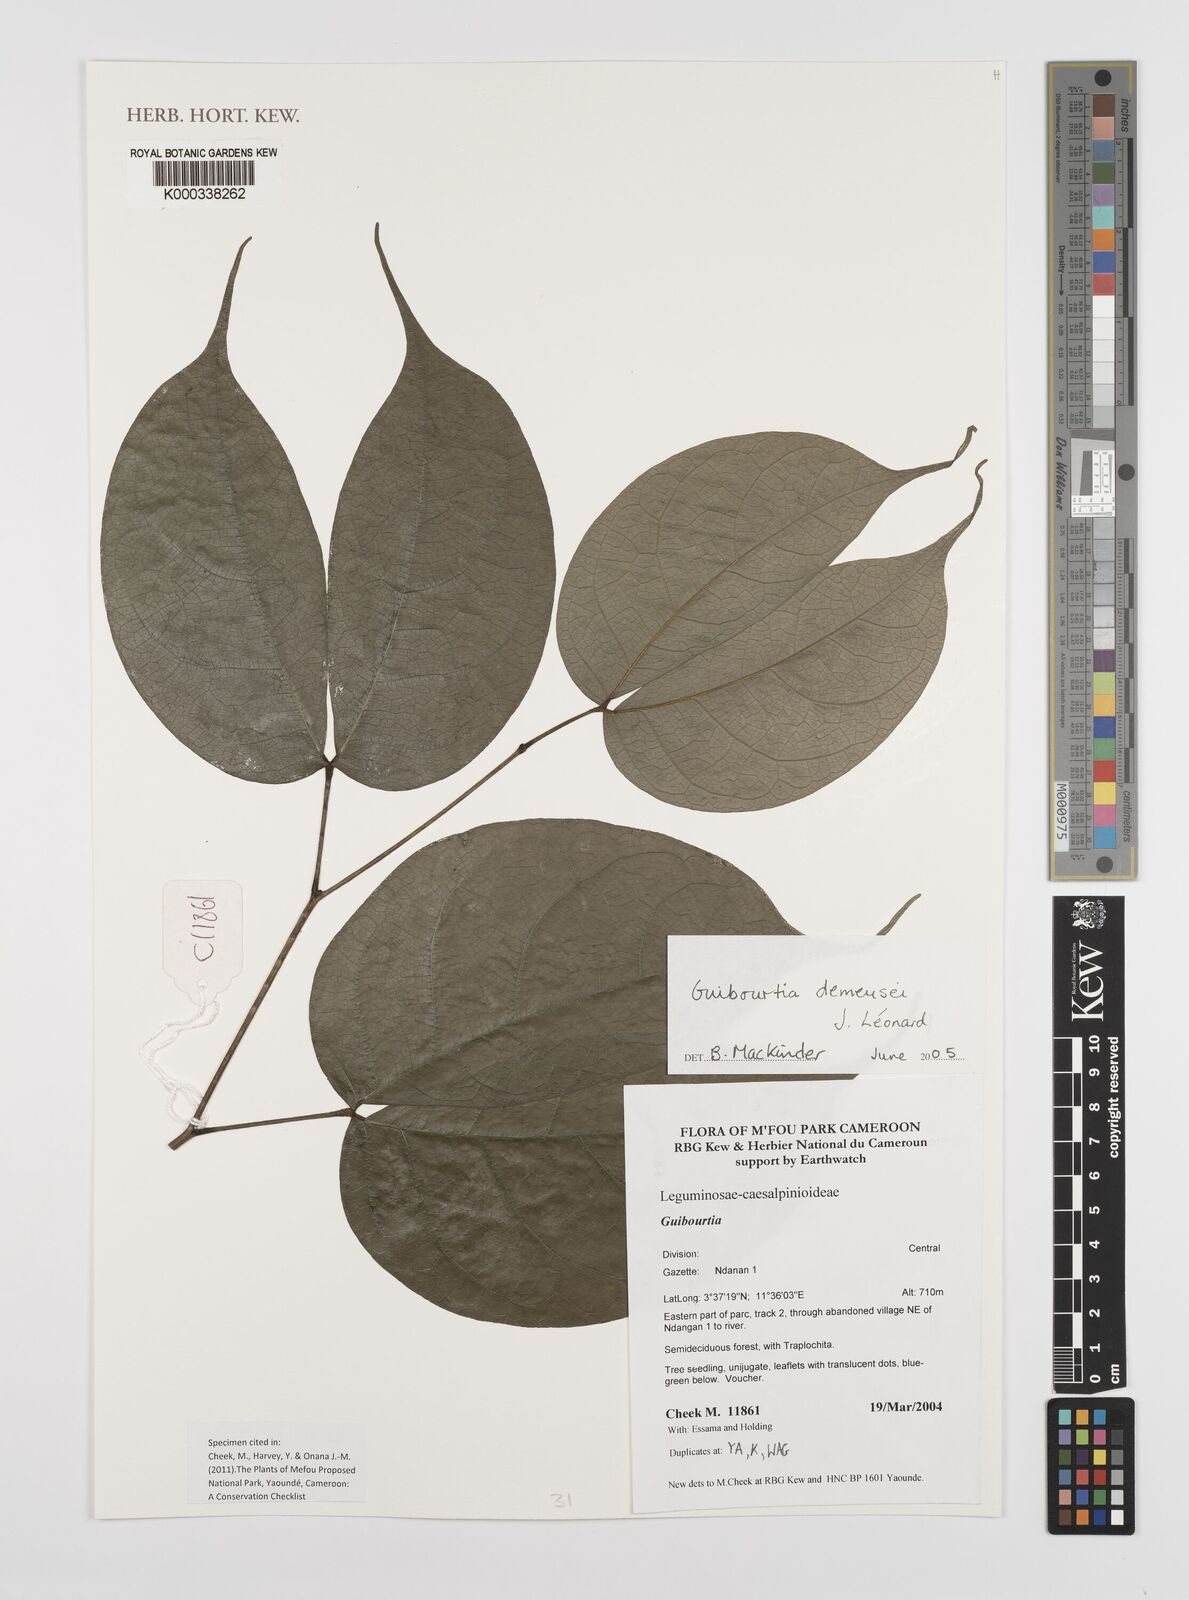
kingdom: Plantae
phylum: Tracheophyta
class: Magnoliopsida
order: Fabales
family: Fabaceae
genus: Guibourtia
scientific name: Guibourtia
